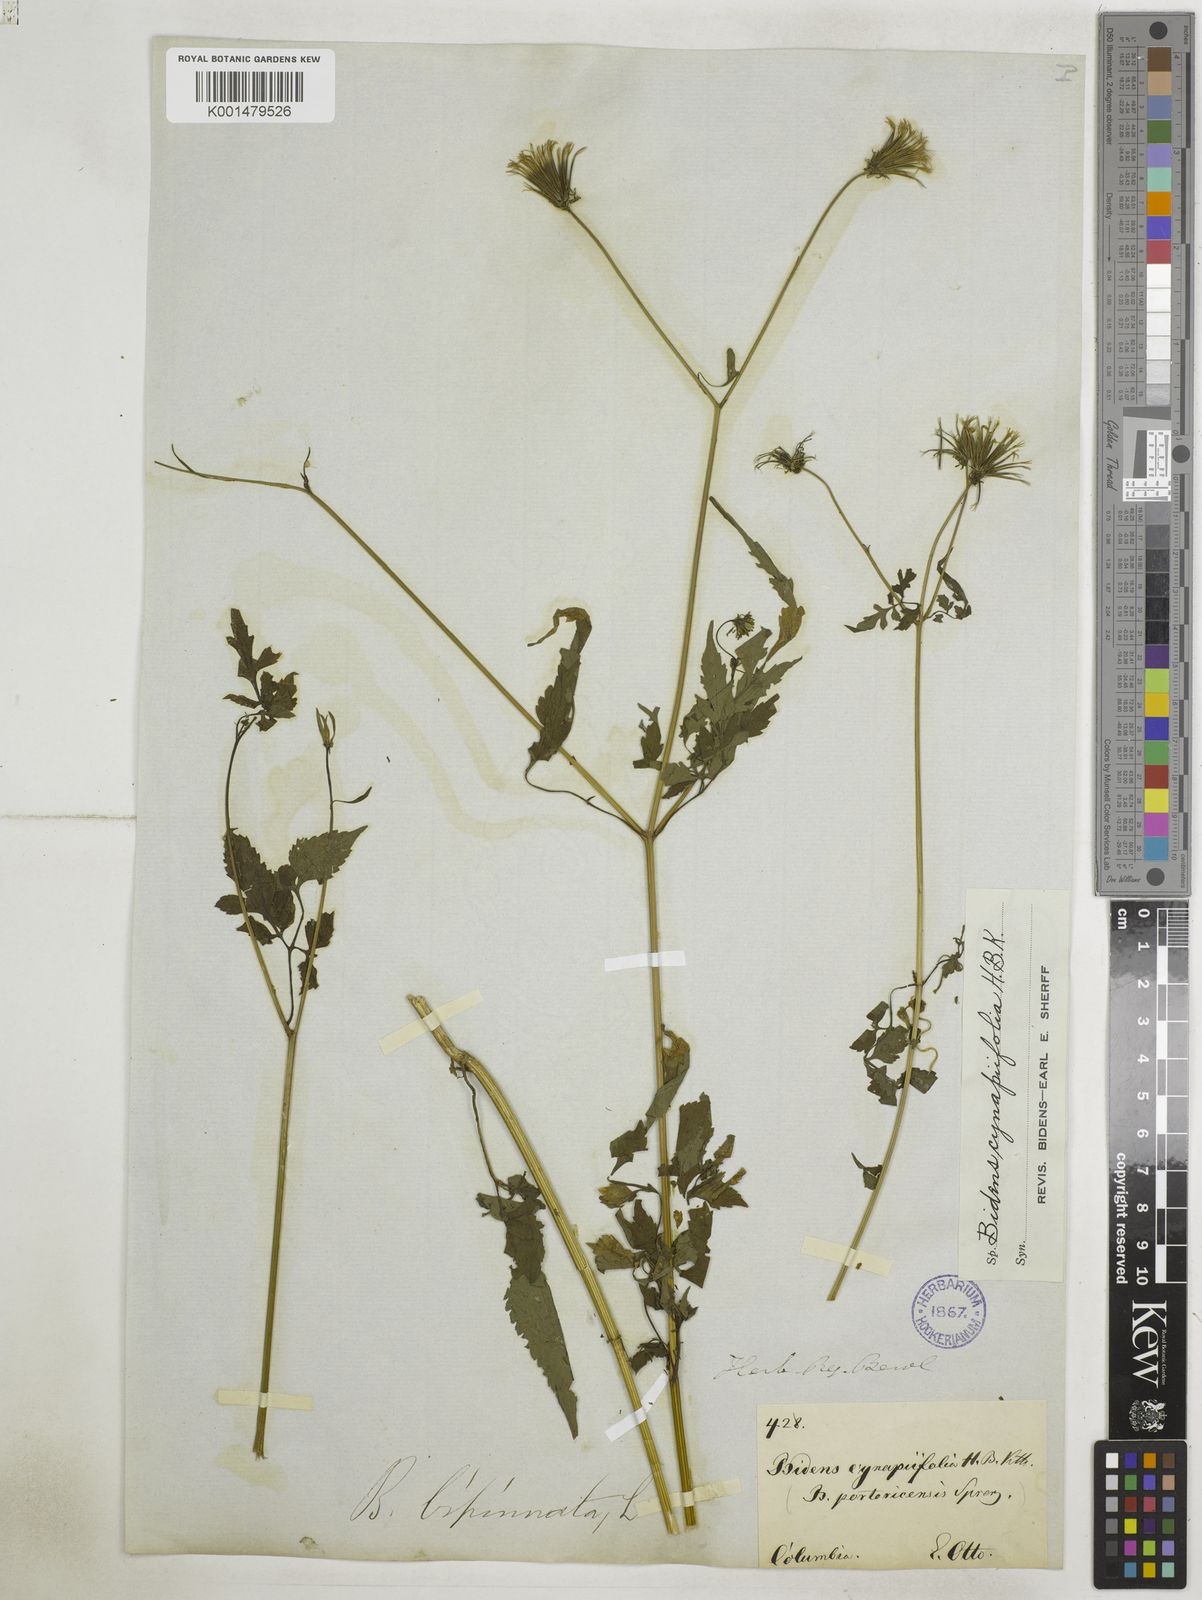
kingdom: Plantae
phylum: Tracheophyta
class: Magnoliopsida
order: Asterales
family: Asteraceae
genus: Bidens
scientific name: Bidens cynapiifolia
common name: Beggar's tick
